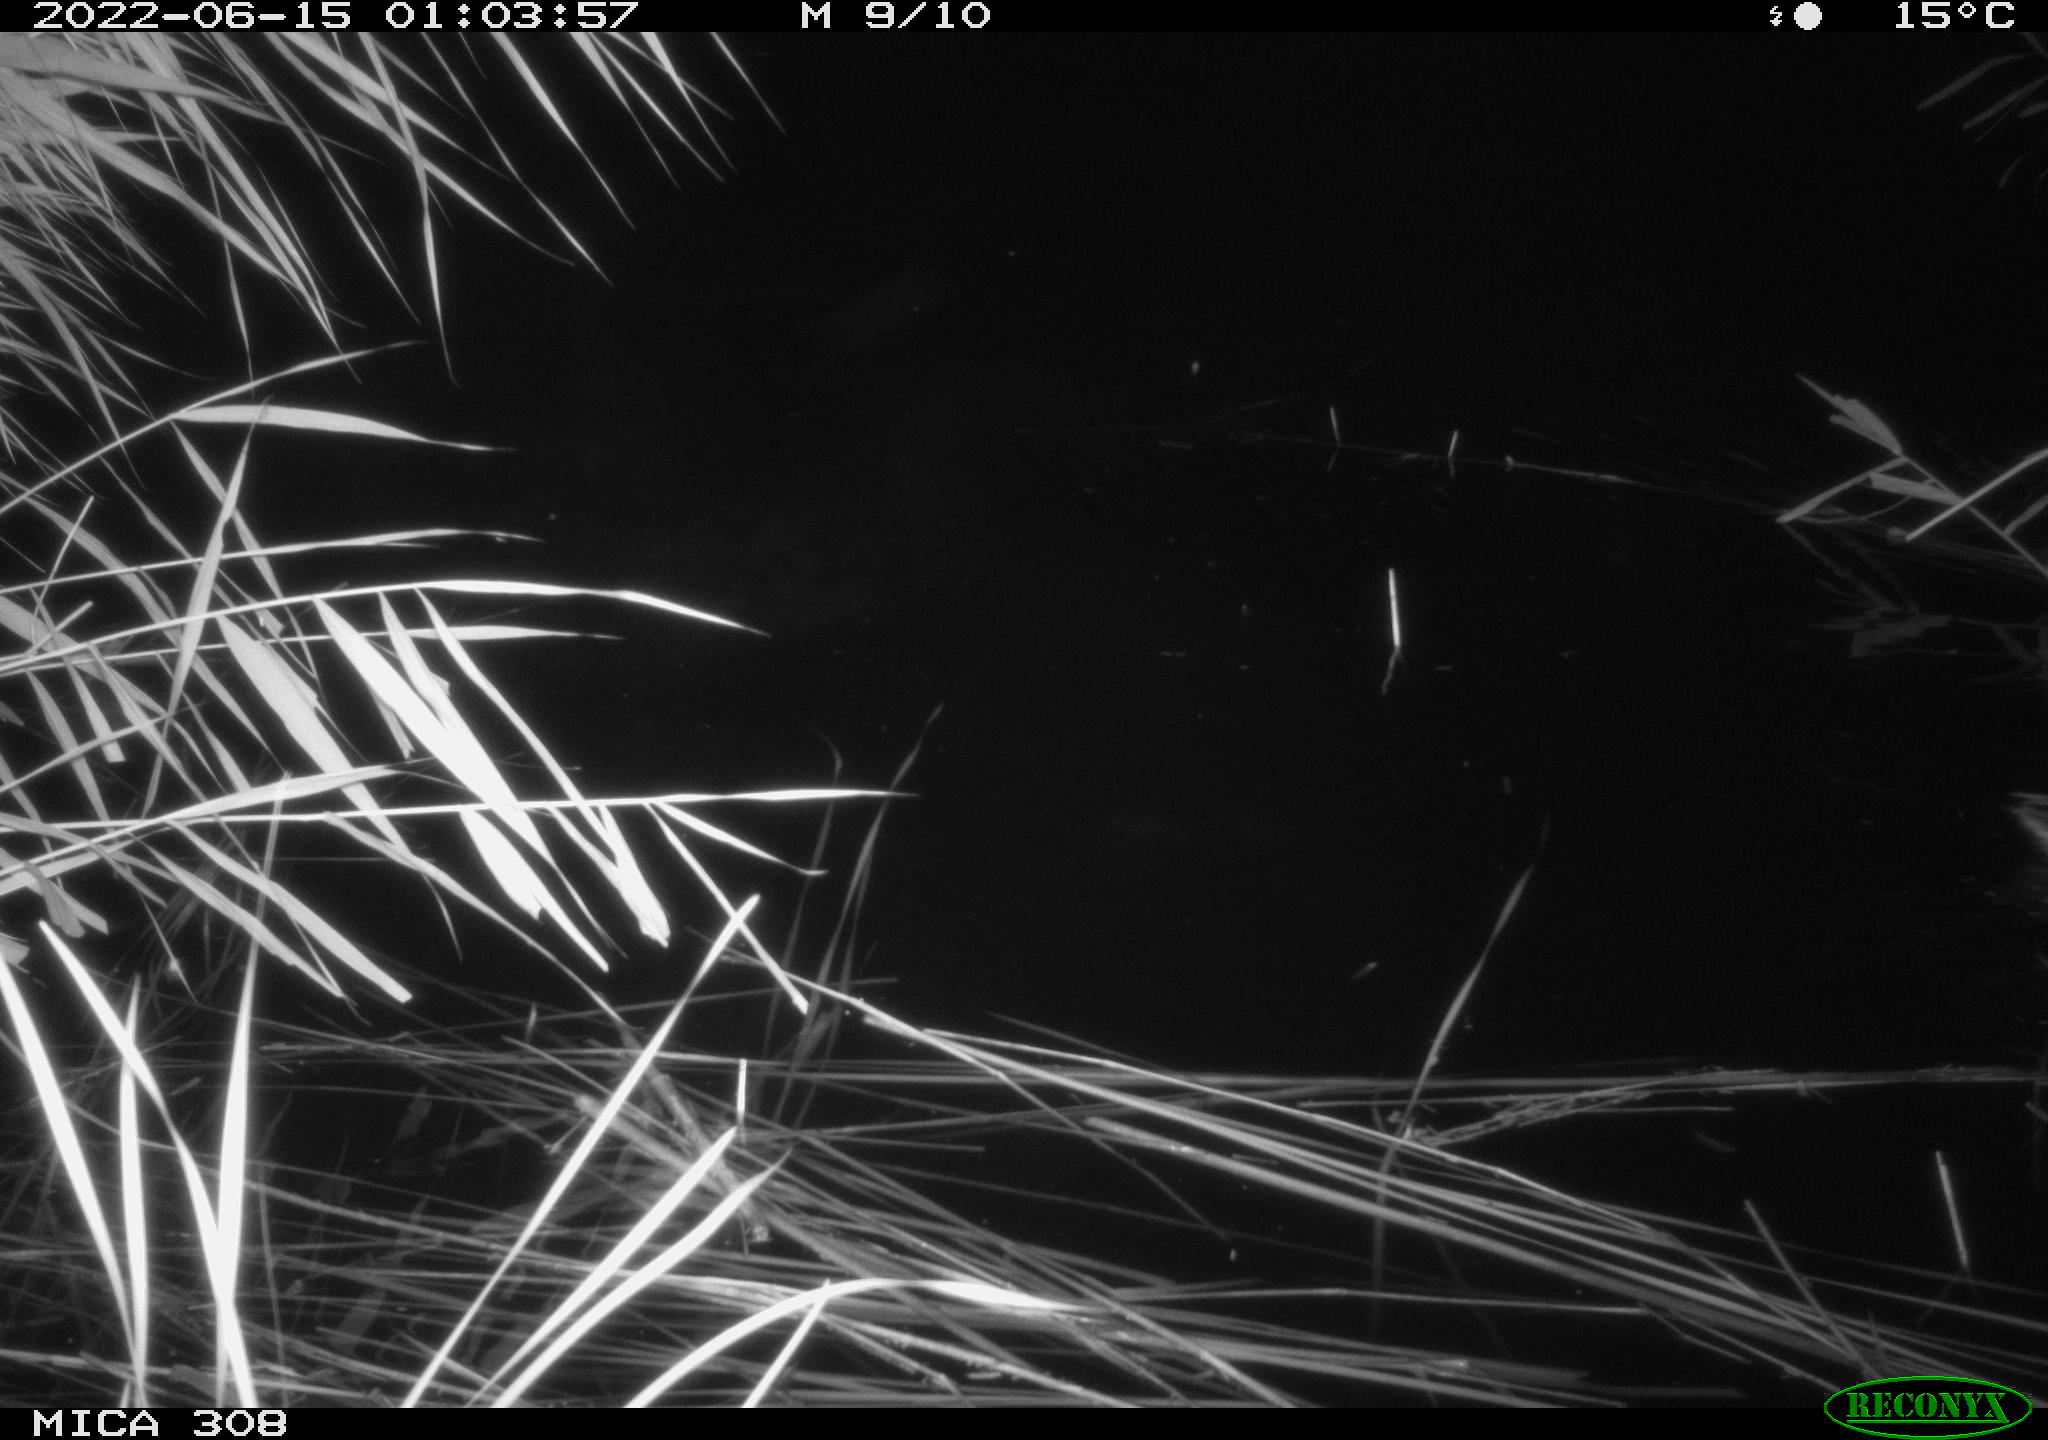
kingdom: Animalia
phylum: Chordata
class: Aves
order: Anseriformes
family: Anatidae
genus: Anas
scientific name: Anas platyrhynchos
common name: Mallard
